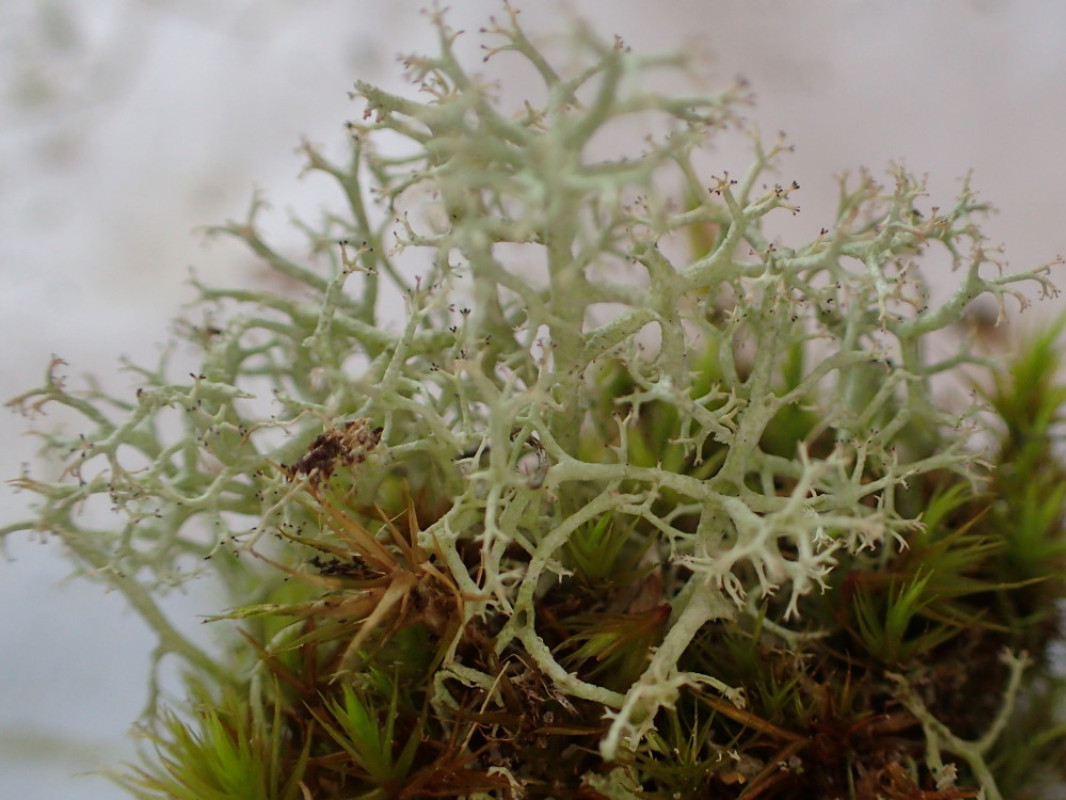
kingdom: Fungi
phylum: Ascomycota
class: Lecanoromycetes
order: Lecanorales
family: Cladoniaceae
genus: Cladonia
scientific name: Cladonia portentosa
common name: hede-rensdyrlav
